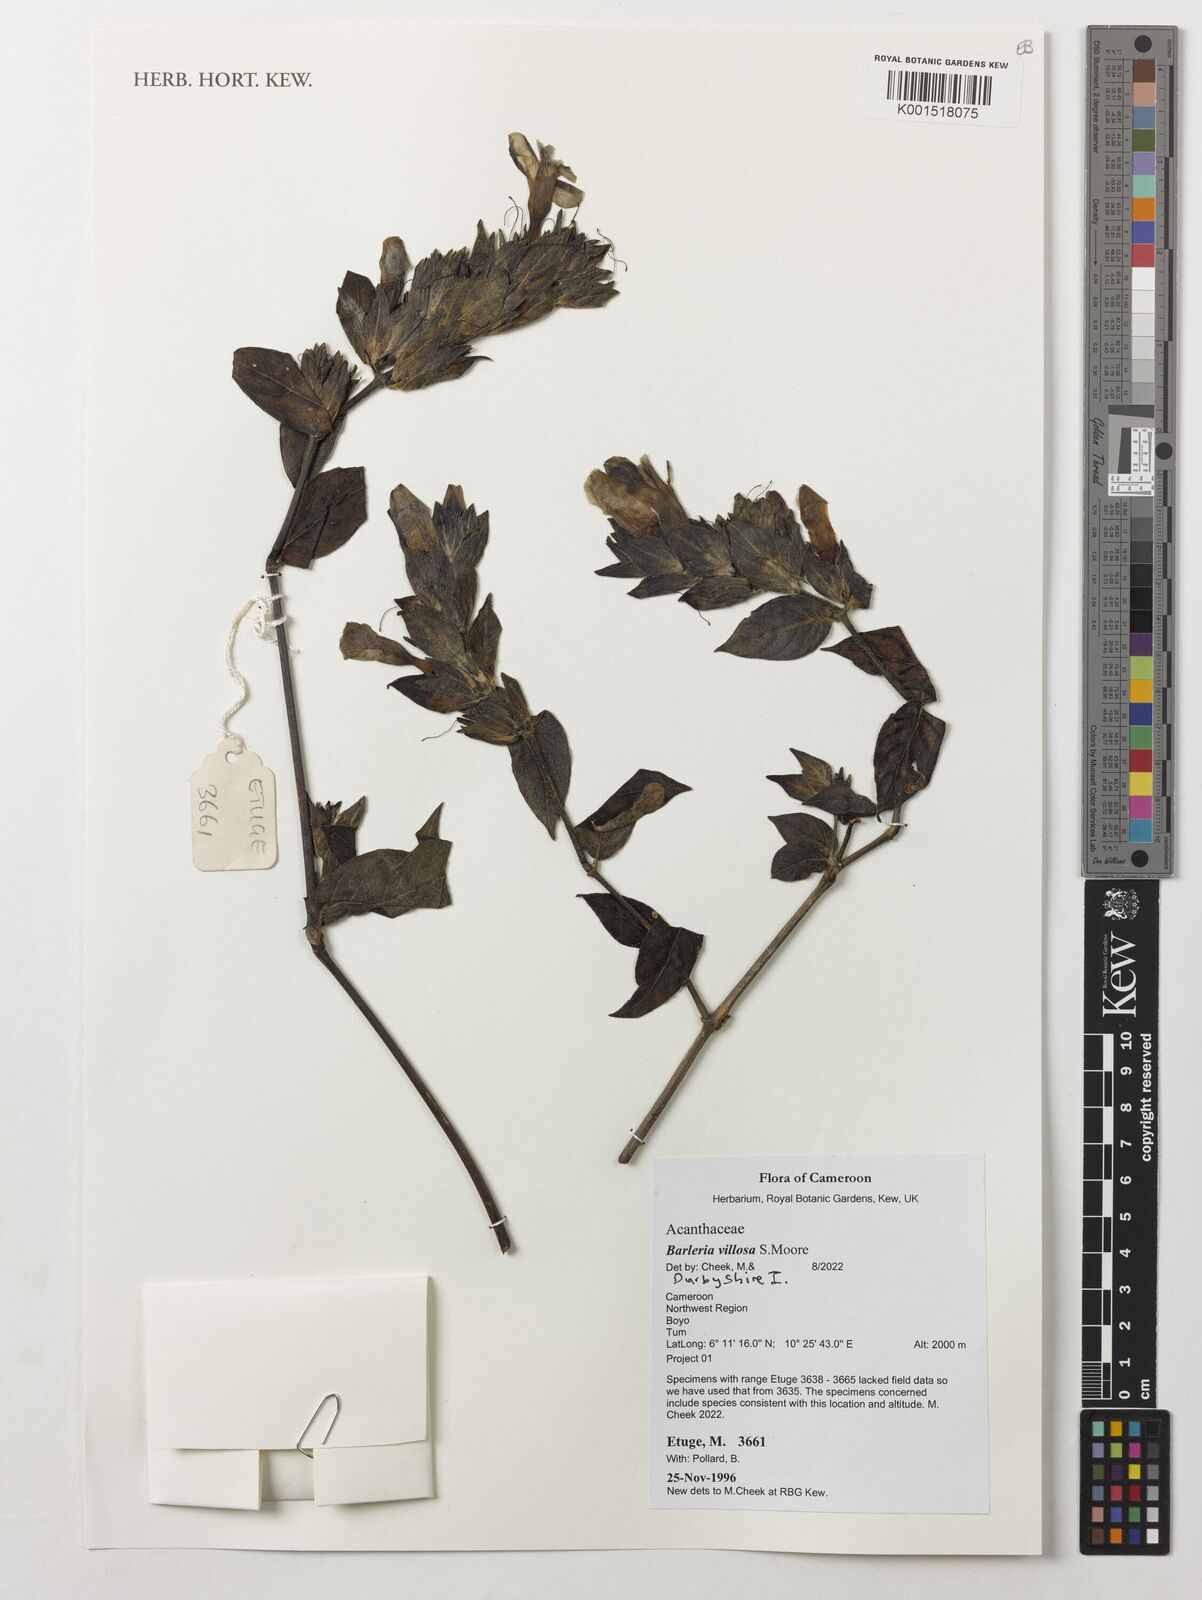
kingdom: Plantae
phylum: Tracheophyta
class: Magnoliopsida
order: Lamiales
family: Acanthaceae
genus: Barleria
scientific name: Barleria villosa
